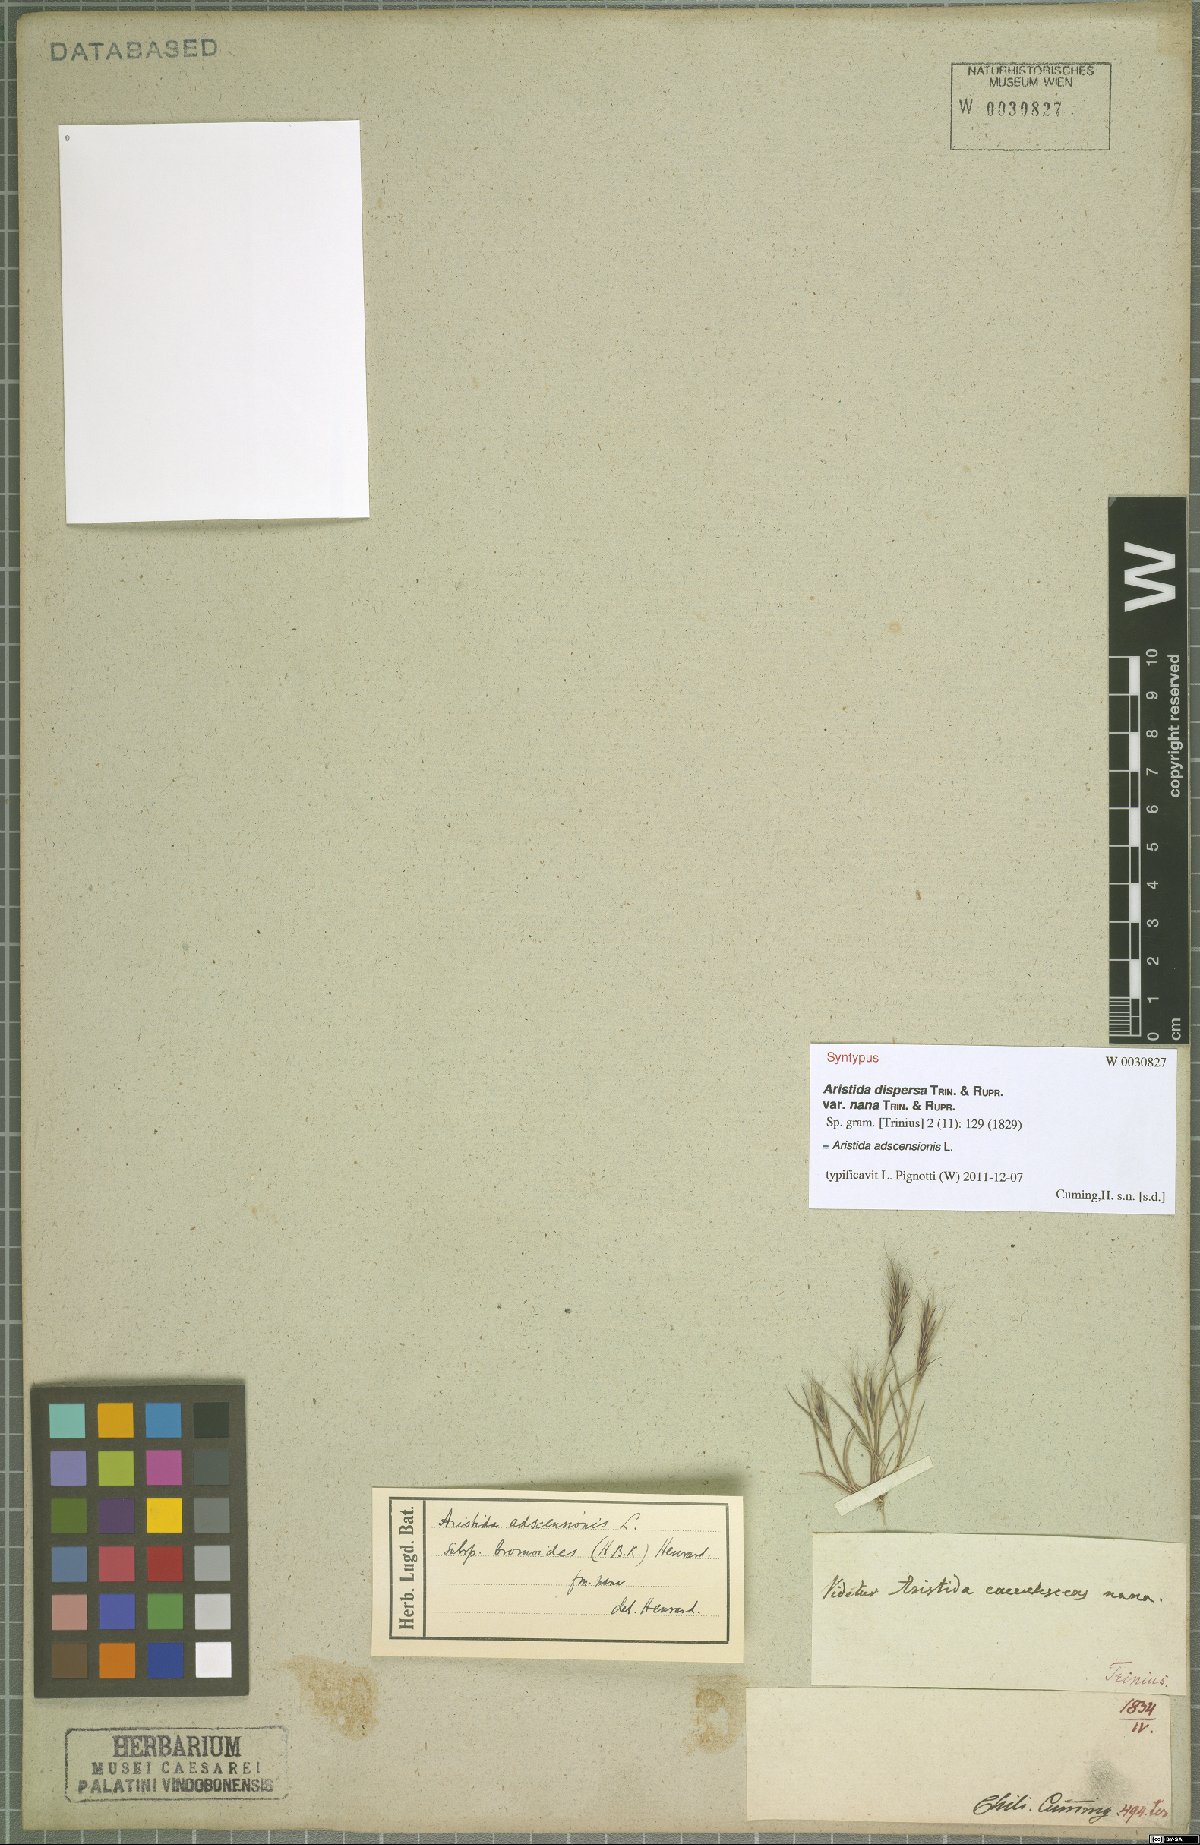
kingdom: Plantae
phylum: Tracheophyta
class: Liliopsida
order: Poales
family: Poaceae
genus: Aristida
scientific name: Aristida adscensionis
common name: Sixweeks threeawn
